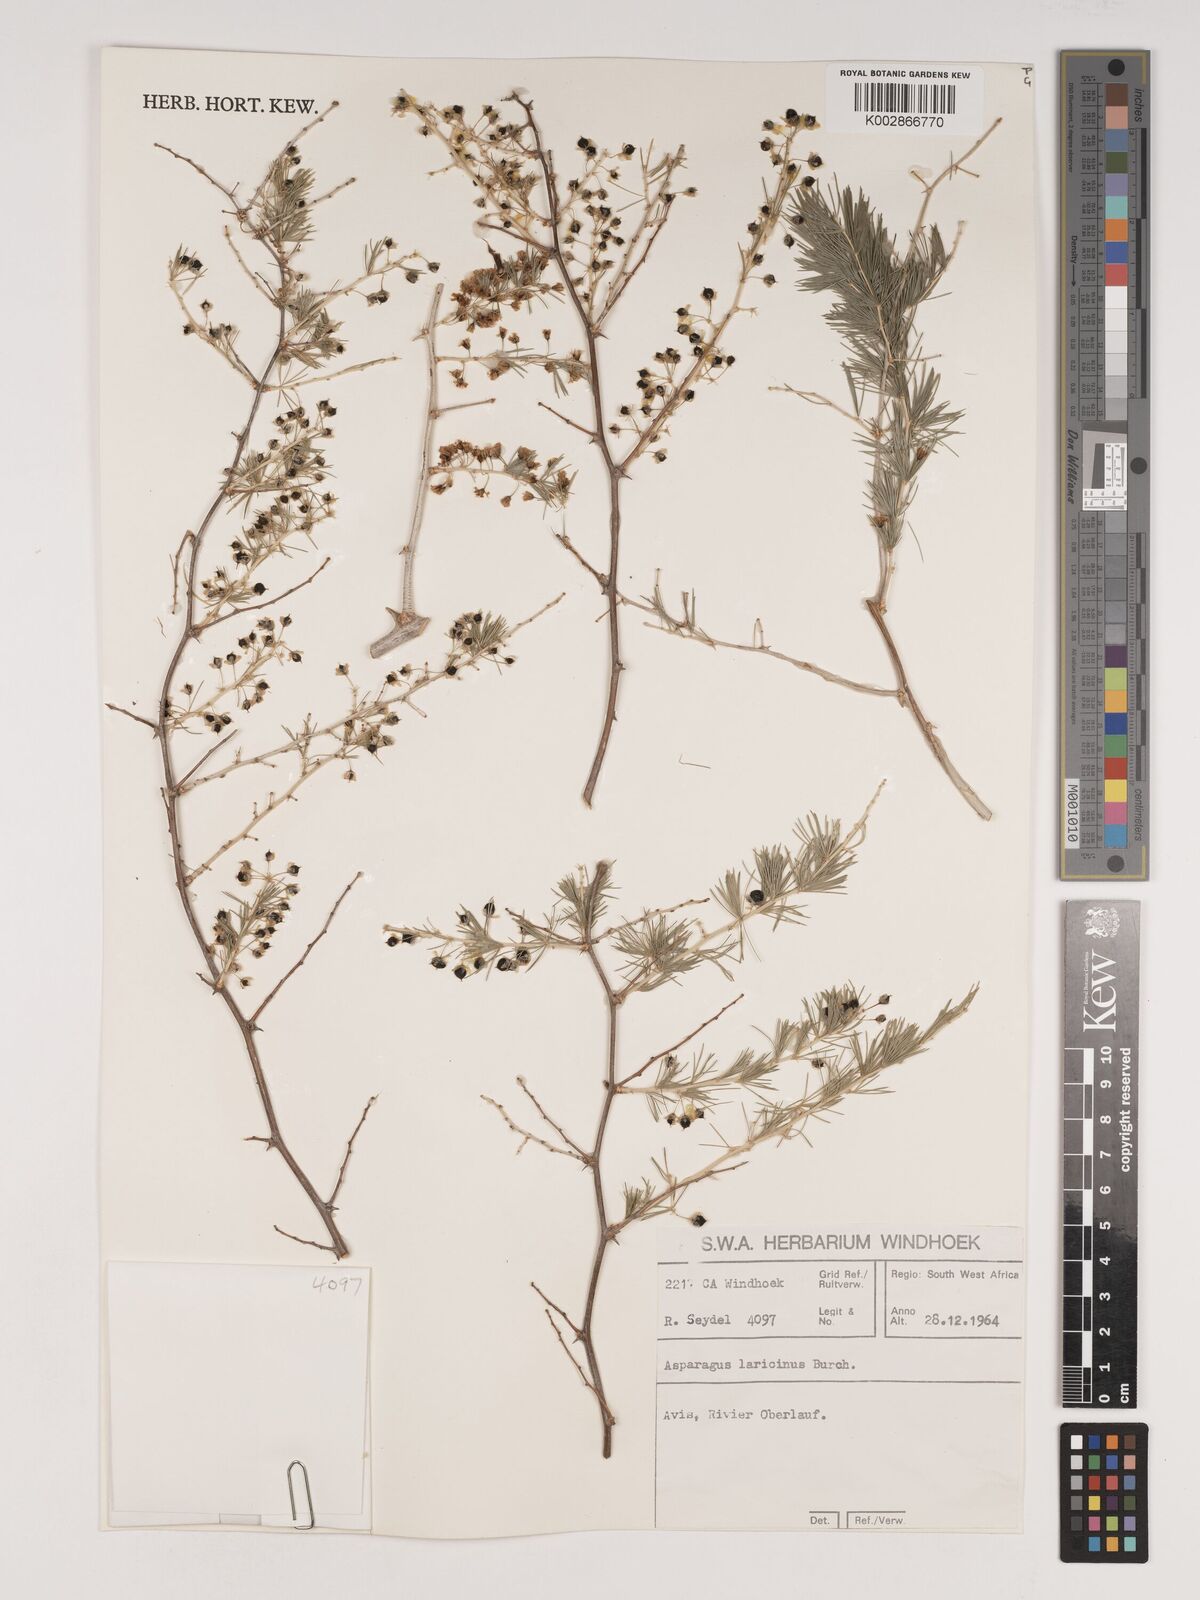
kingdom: Plantae
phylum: Tracheophyta
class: Liliopsida
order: Asparagales
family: Asparagaceae
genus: Asparagus
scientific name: Asparagus laricinus
